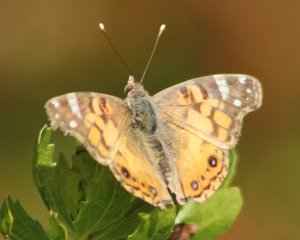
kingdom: Animalia
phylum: Arthropoda
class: Insecta
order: Lepidoptera
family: Nymphalidae
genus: Vanessa
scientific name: Vanessa virginiensis
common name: American Lady
